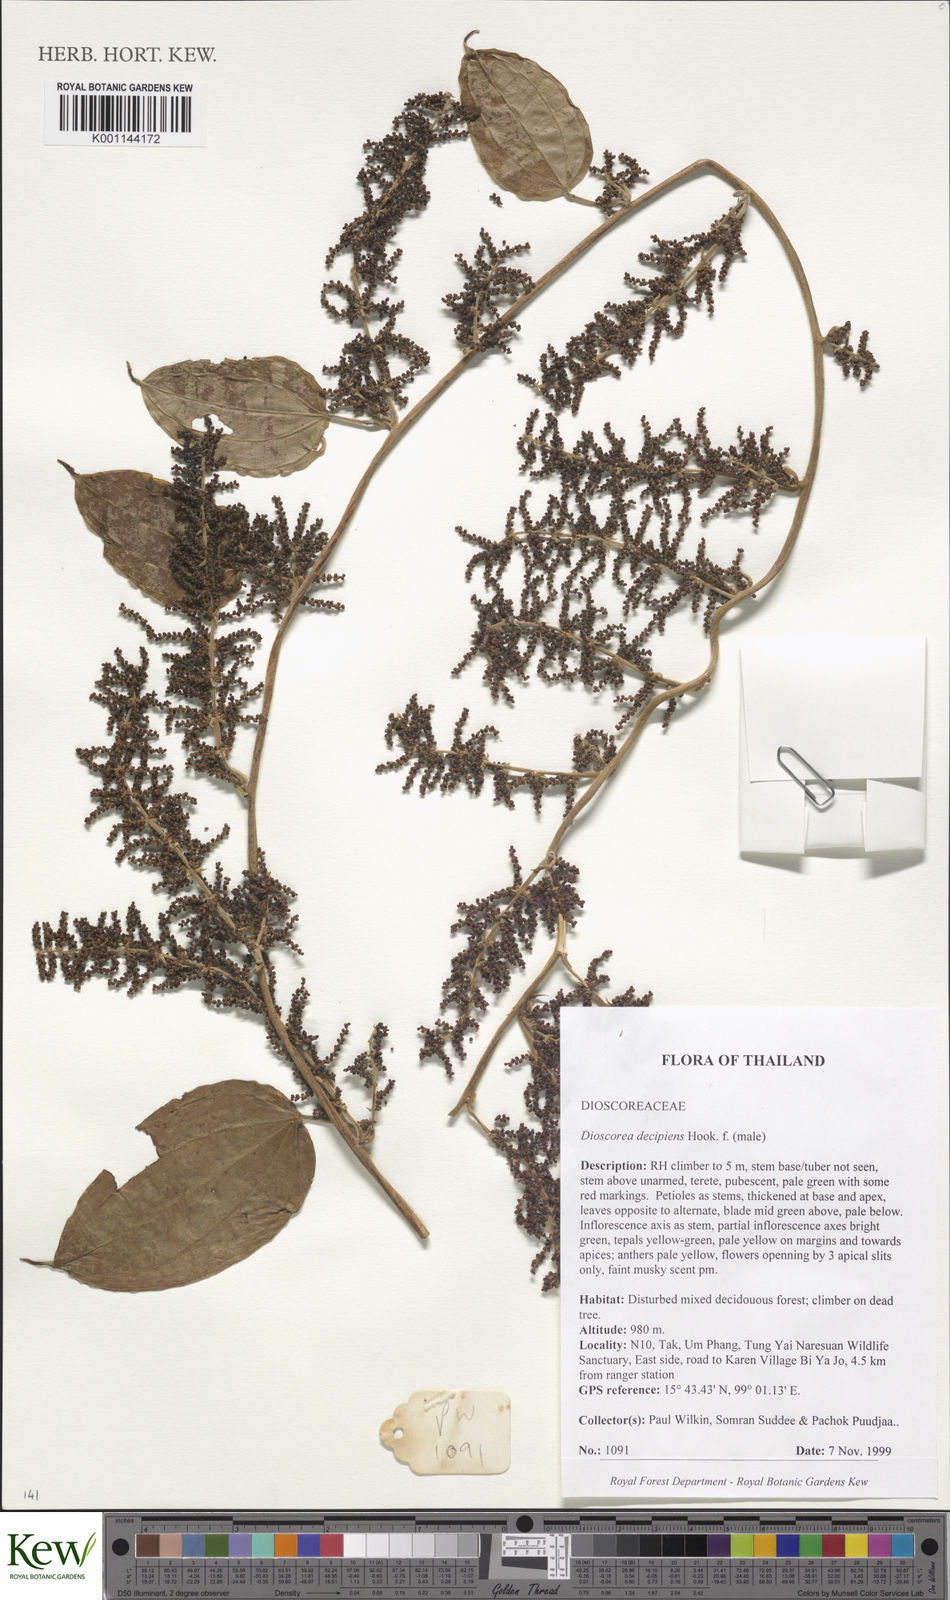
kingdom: Plantae
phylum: Tracheophyta
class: Liliopsida
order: Dioscoreales
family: Dioscoreaceae
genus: Dioscorea
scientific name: Dioscorea decipiens
